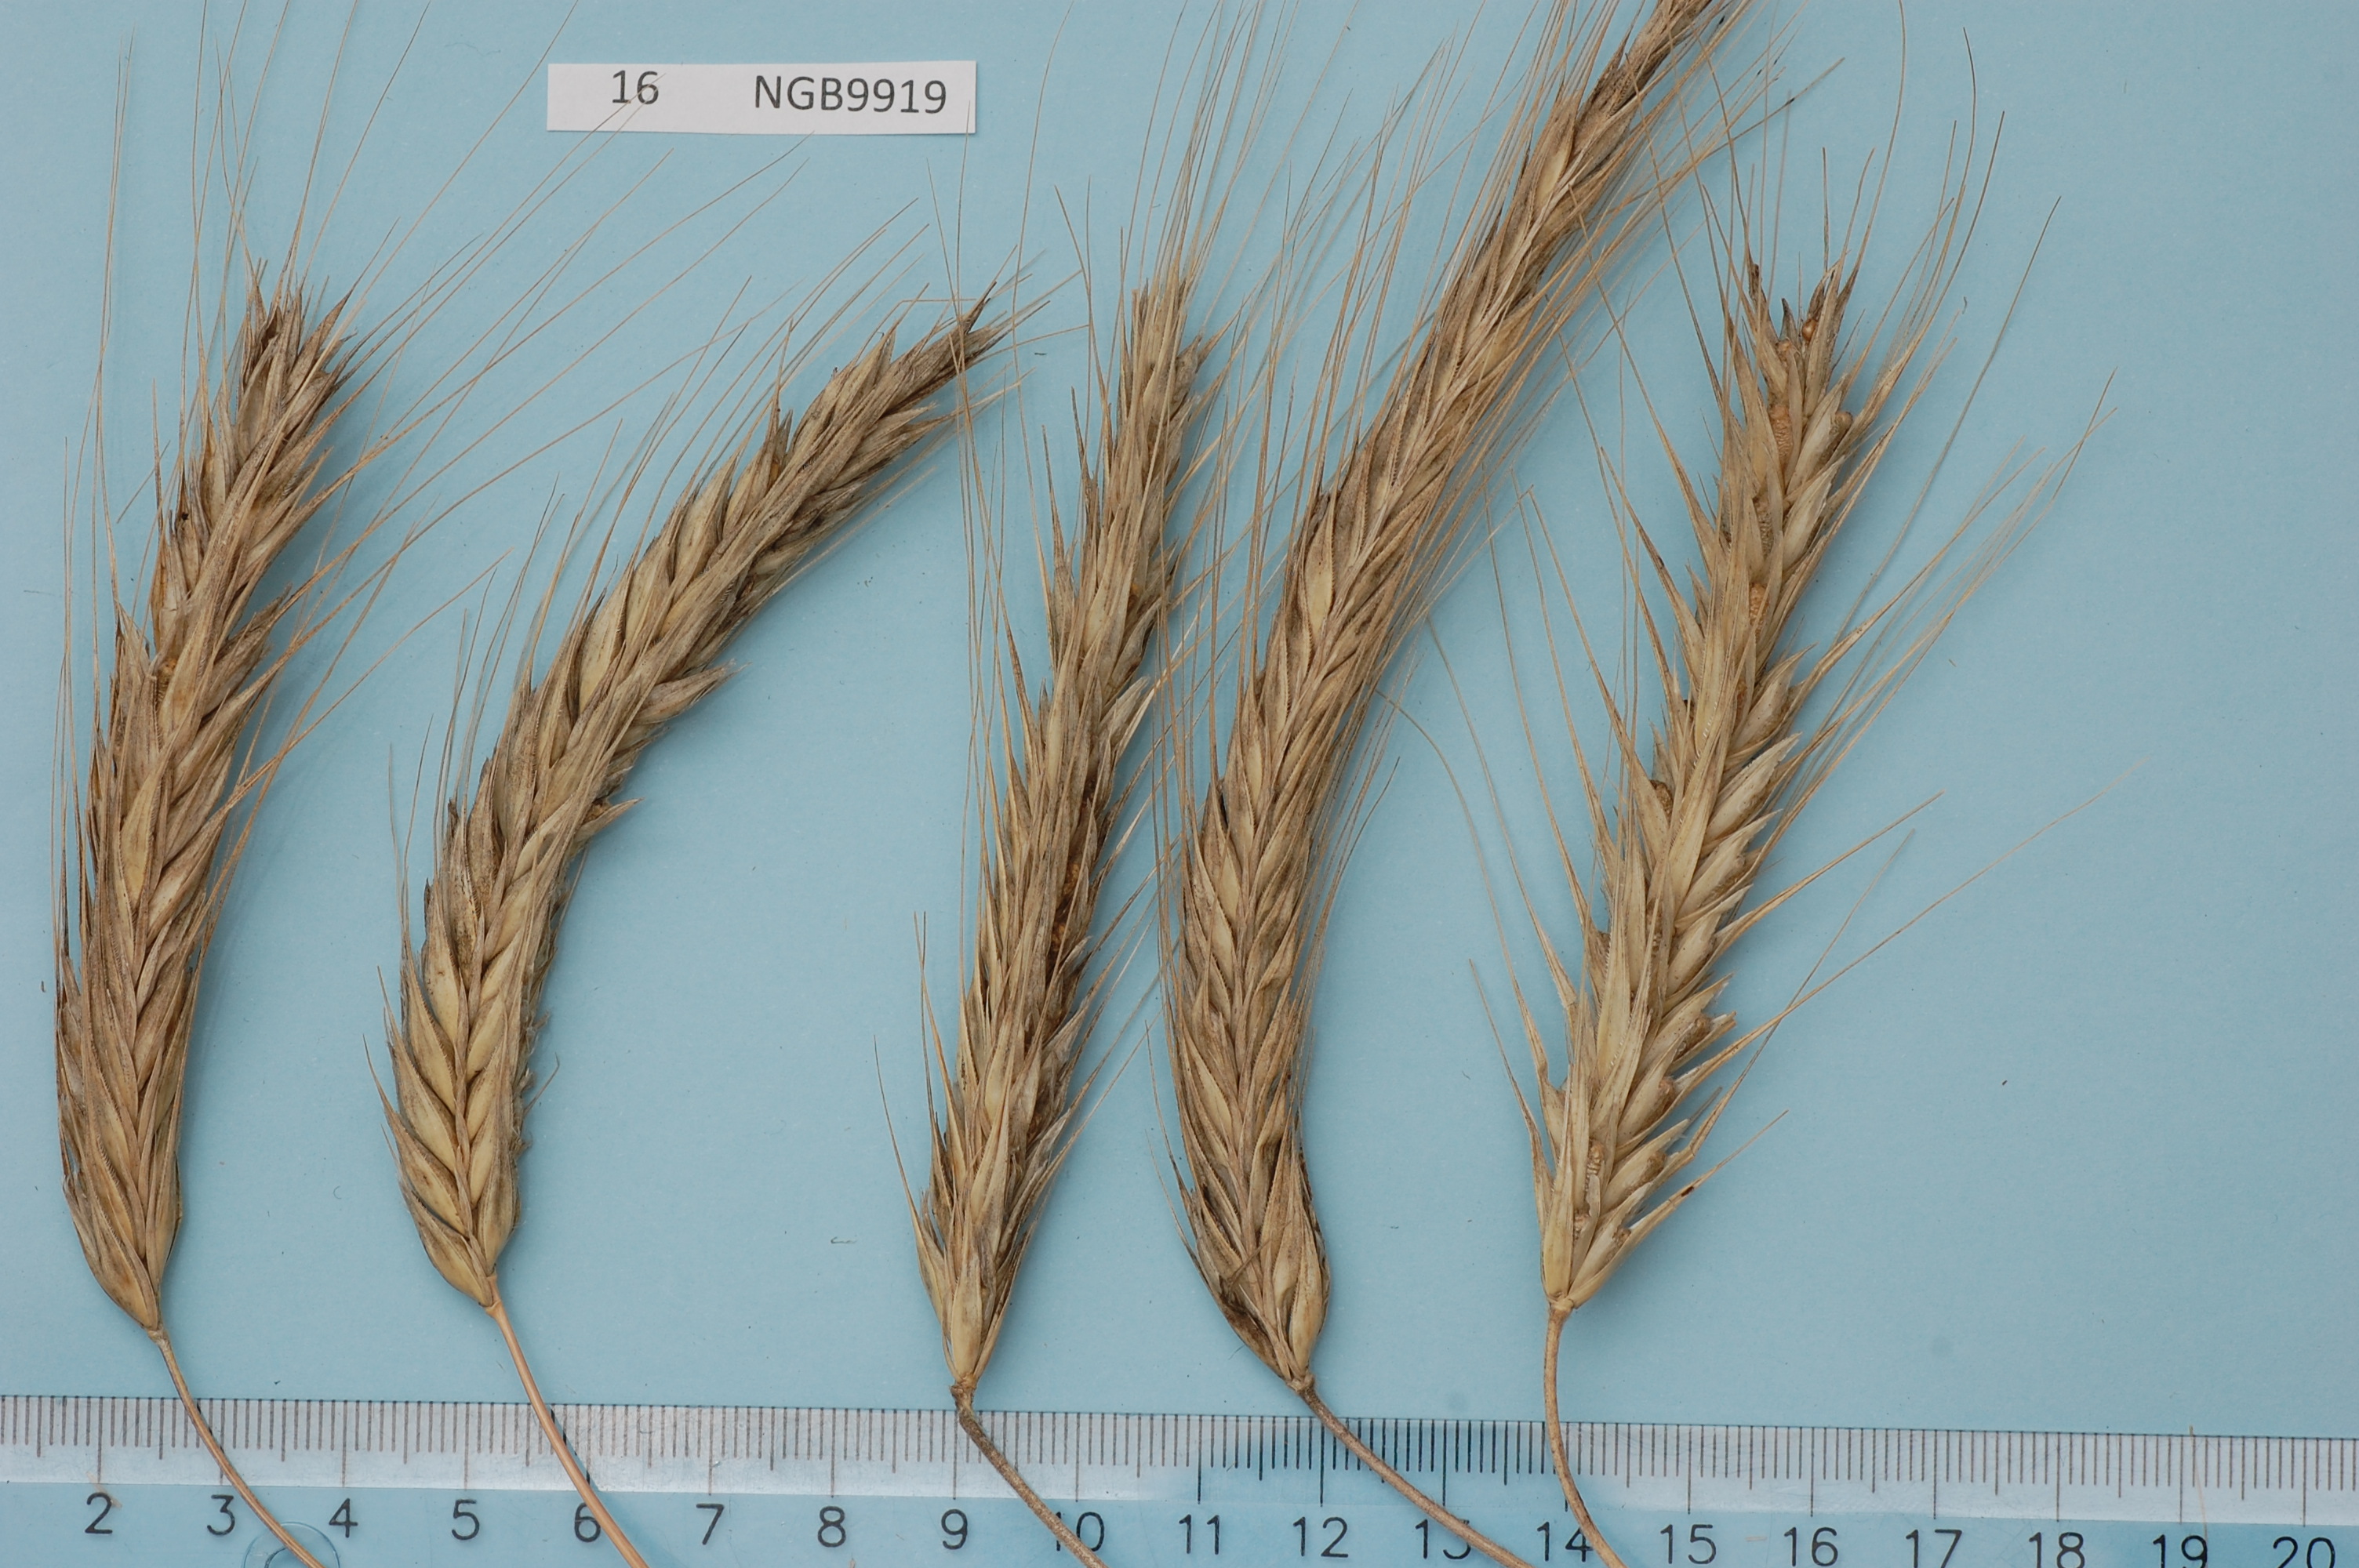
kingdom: Plantae
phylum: Tracheophyta
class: Liliopsida
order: Poales
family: Poaceae
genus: Secale
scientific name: Secale cereale
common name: Rye
